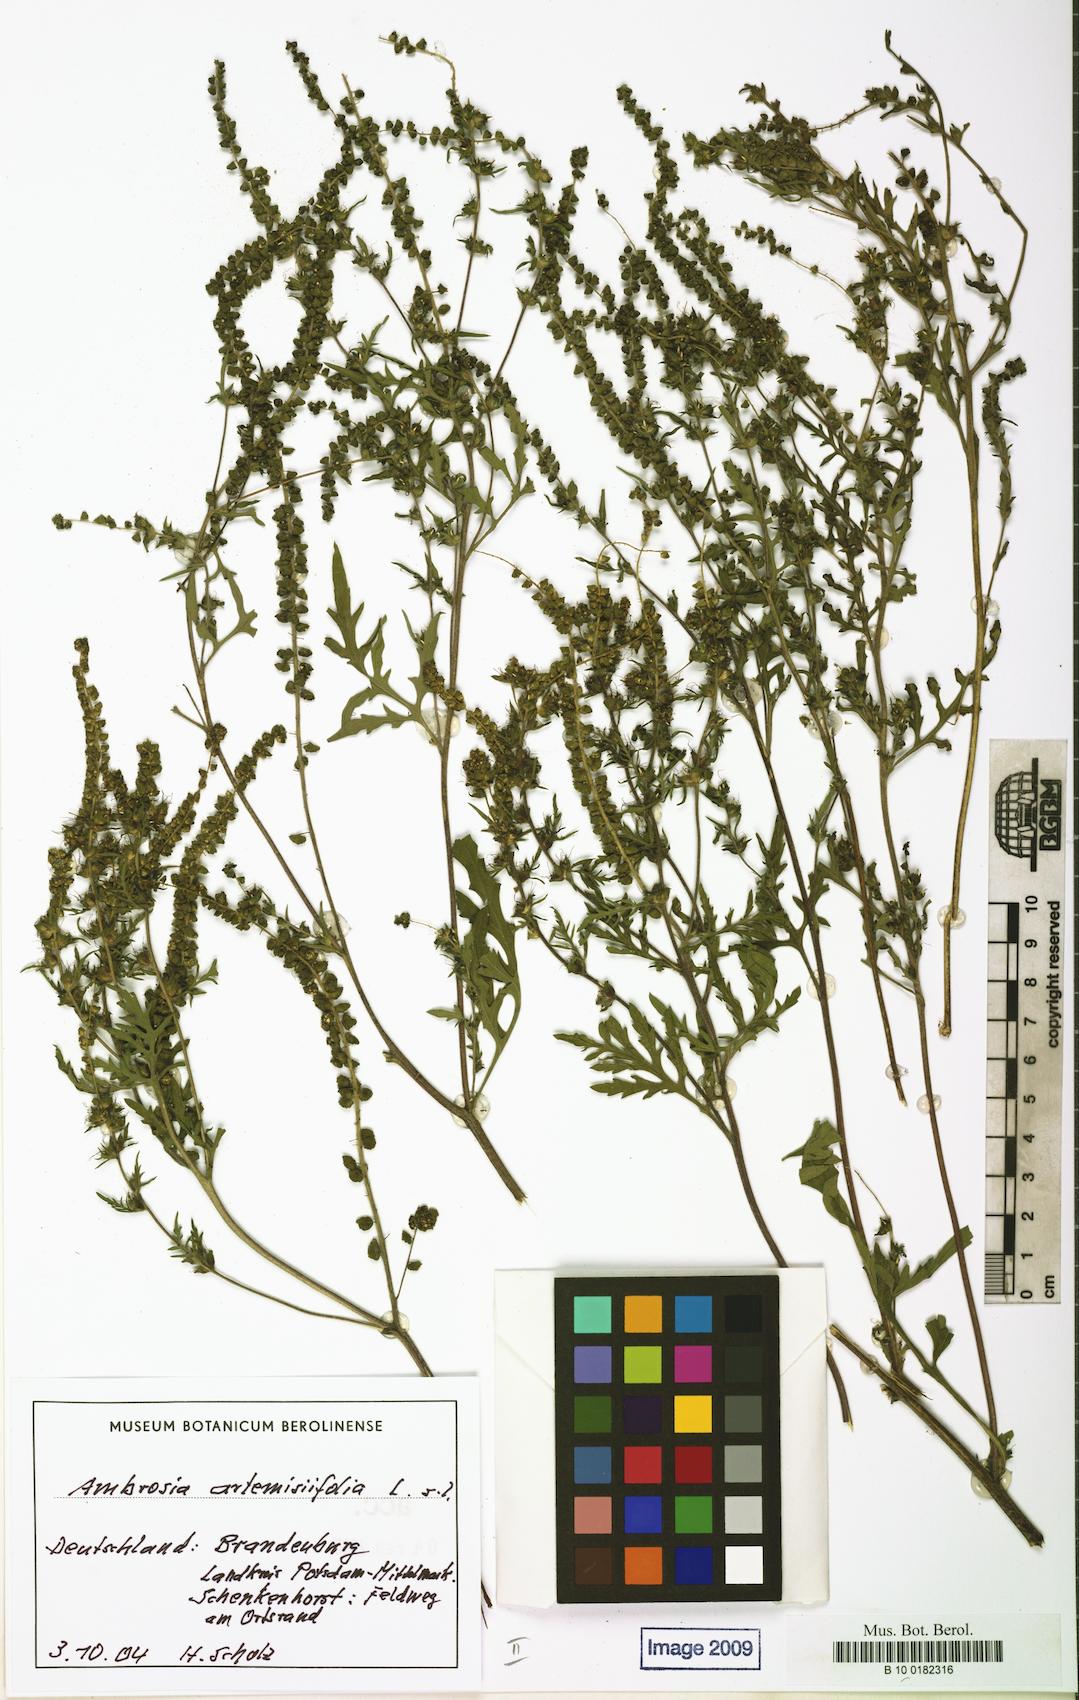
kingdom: Plantae
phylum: Tracheophyta
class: Magnoliopsida
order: Asterales
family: Asteraceae
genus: Ambrosia
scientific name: Ambrosia artemisiifolia
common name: Annual ragweed
